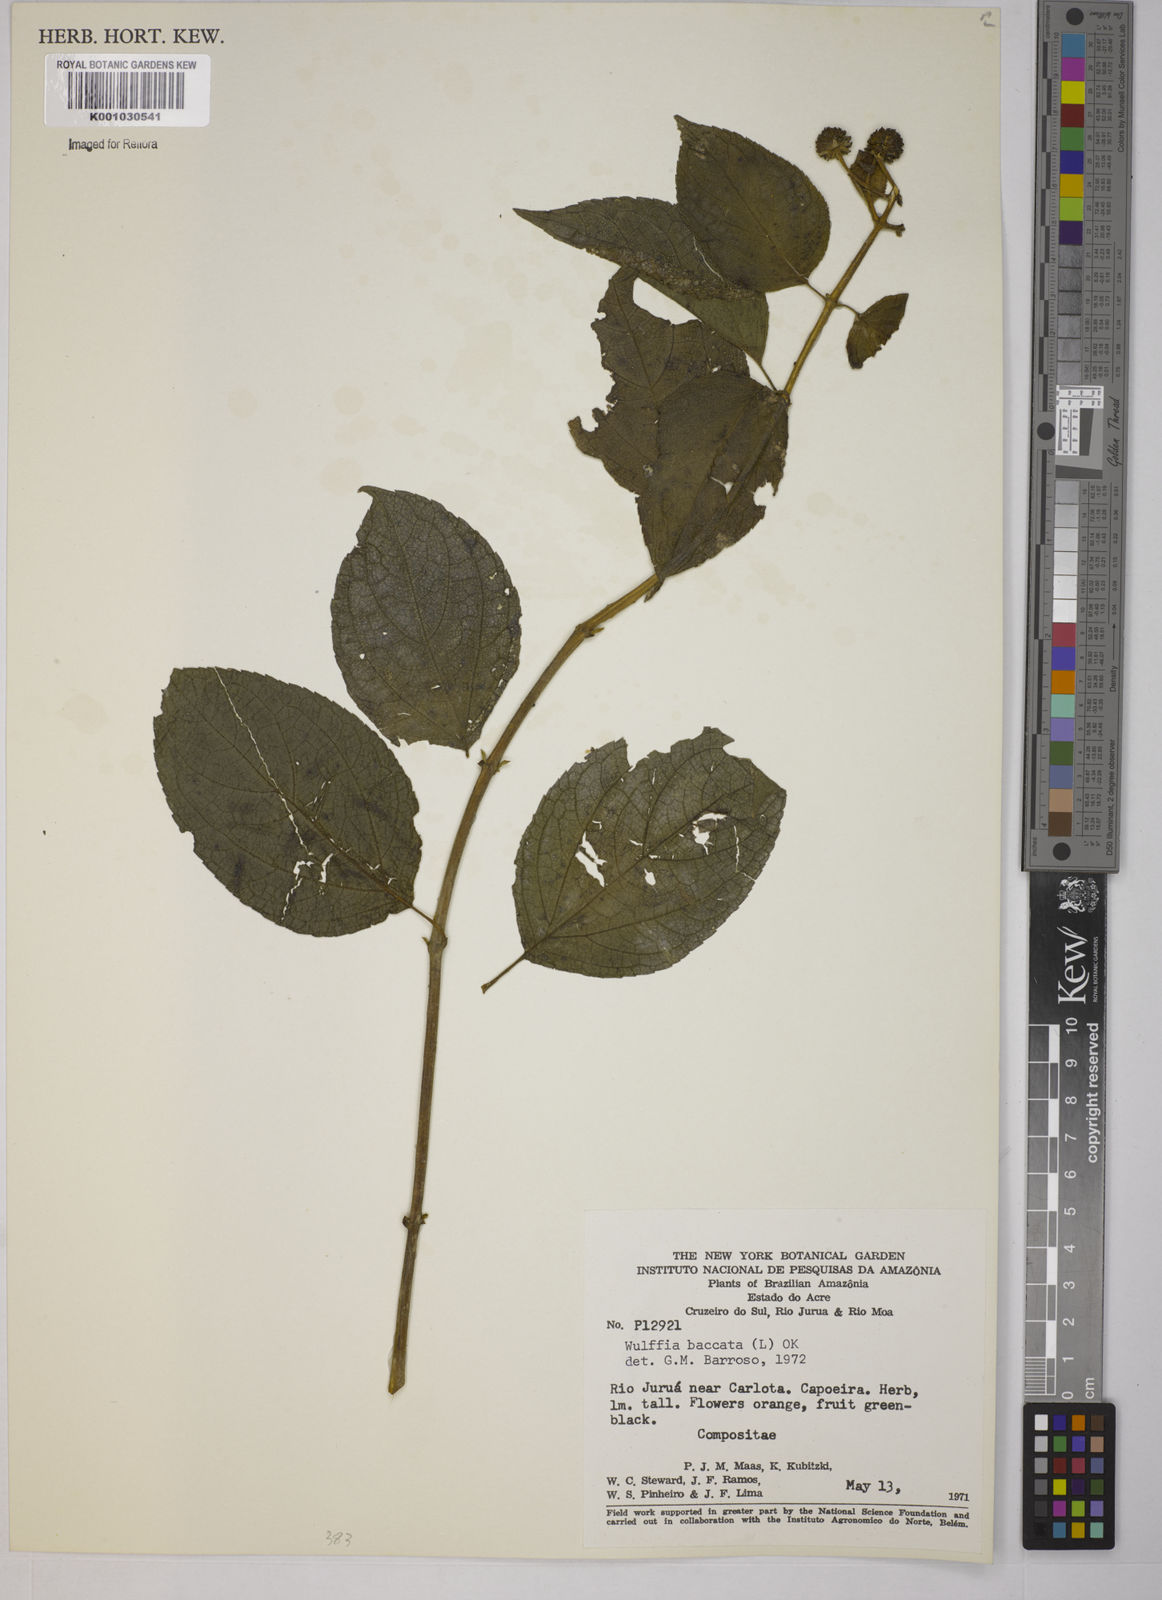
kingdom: Plantae
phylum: Tracheophyta
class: Magnoliopsida
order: Asterales
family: Asteraceae
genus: Tilesia
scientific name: Tilesia baccata
